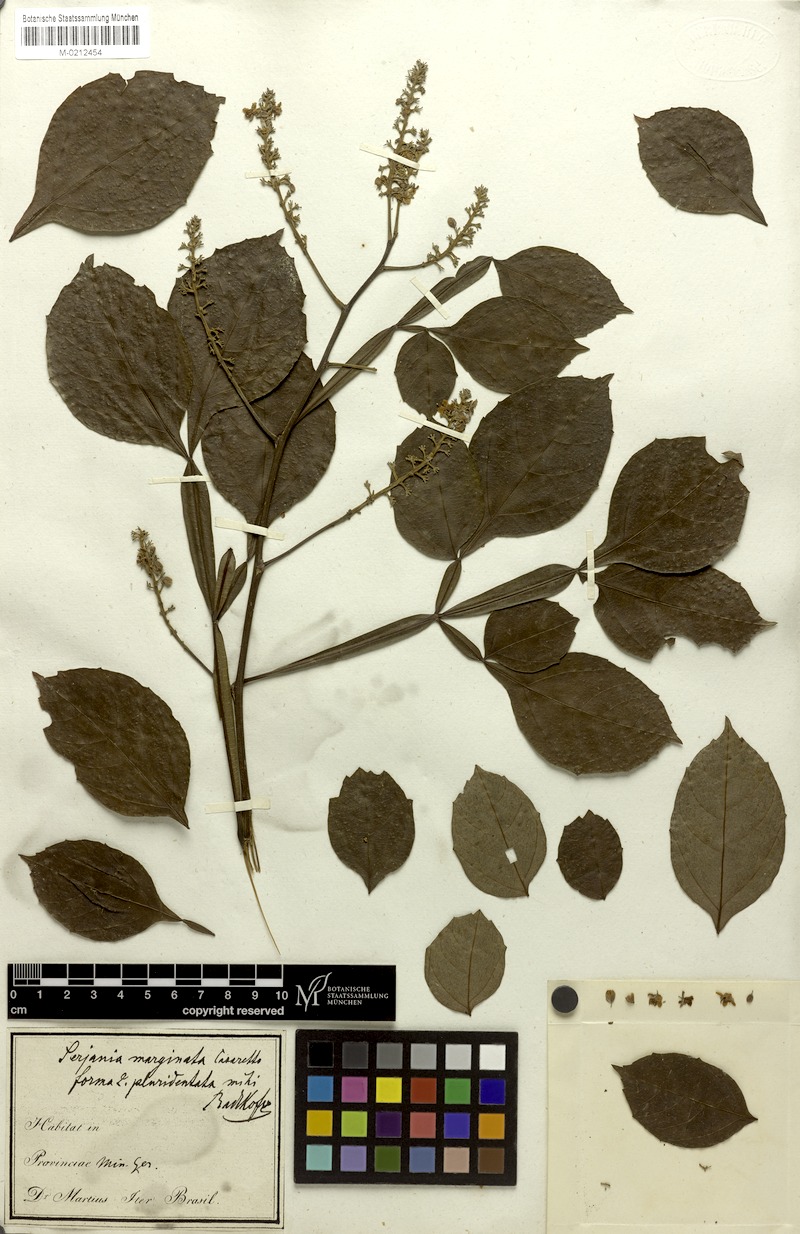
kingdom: Plantae
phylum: Tracheophyta
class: Magnoliopsida
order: Sapindales
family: Sapindaceae
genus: Serjania
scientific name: Serjania marginata
